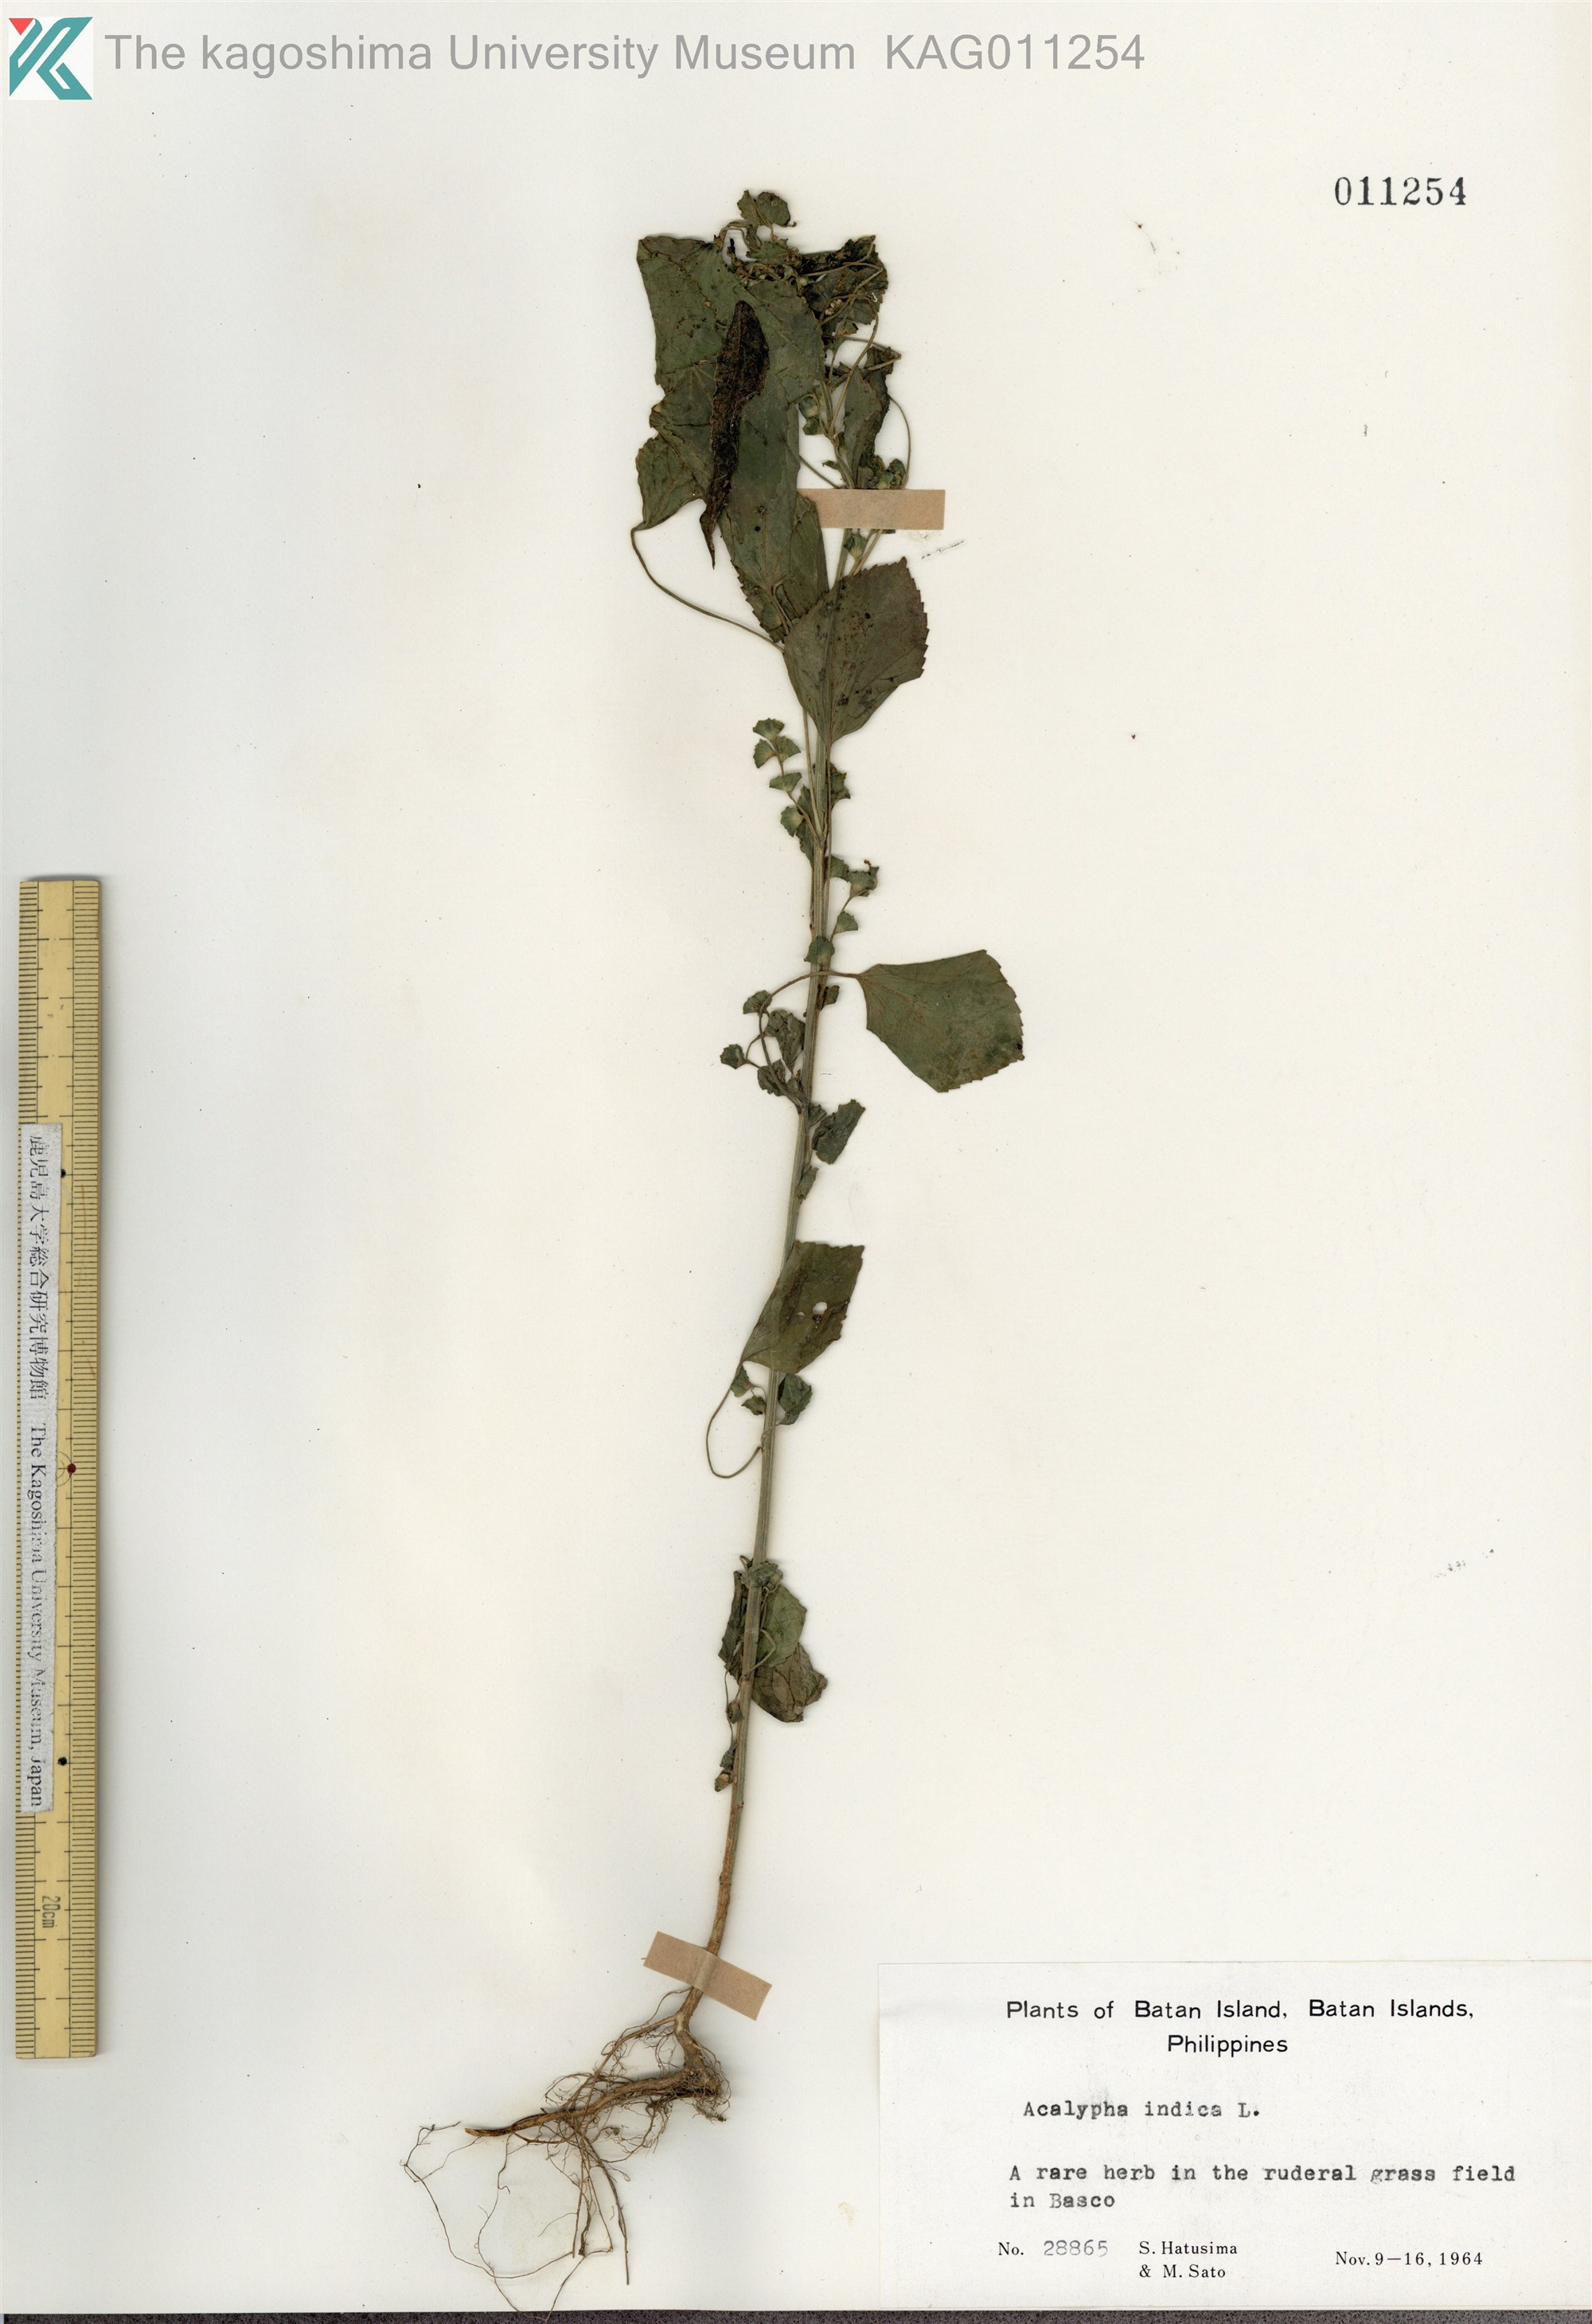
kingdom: Plantae
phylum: Tracheophyta
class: Magnoliopsida
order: Malpighiales
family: Euphorbiaceae
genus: Acalypha
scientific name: Acalypha indica
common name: Indian acalypha
